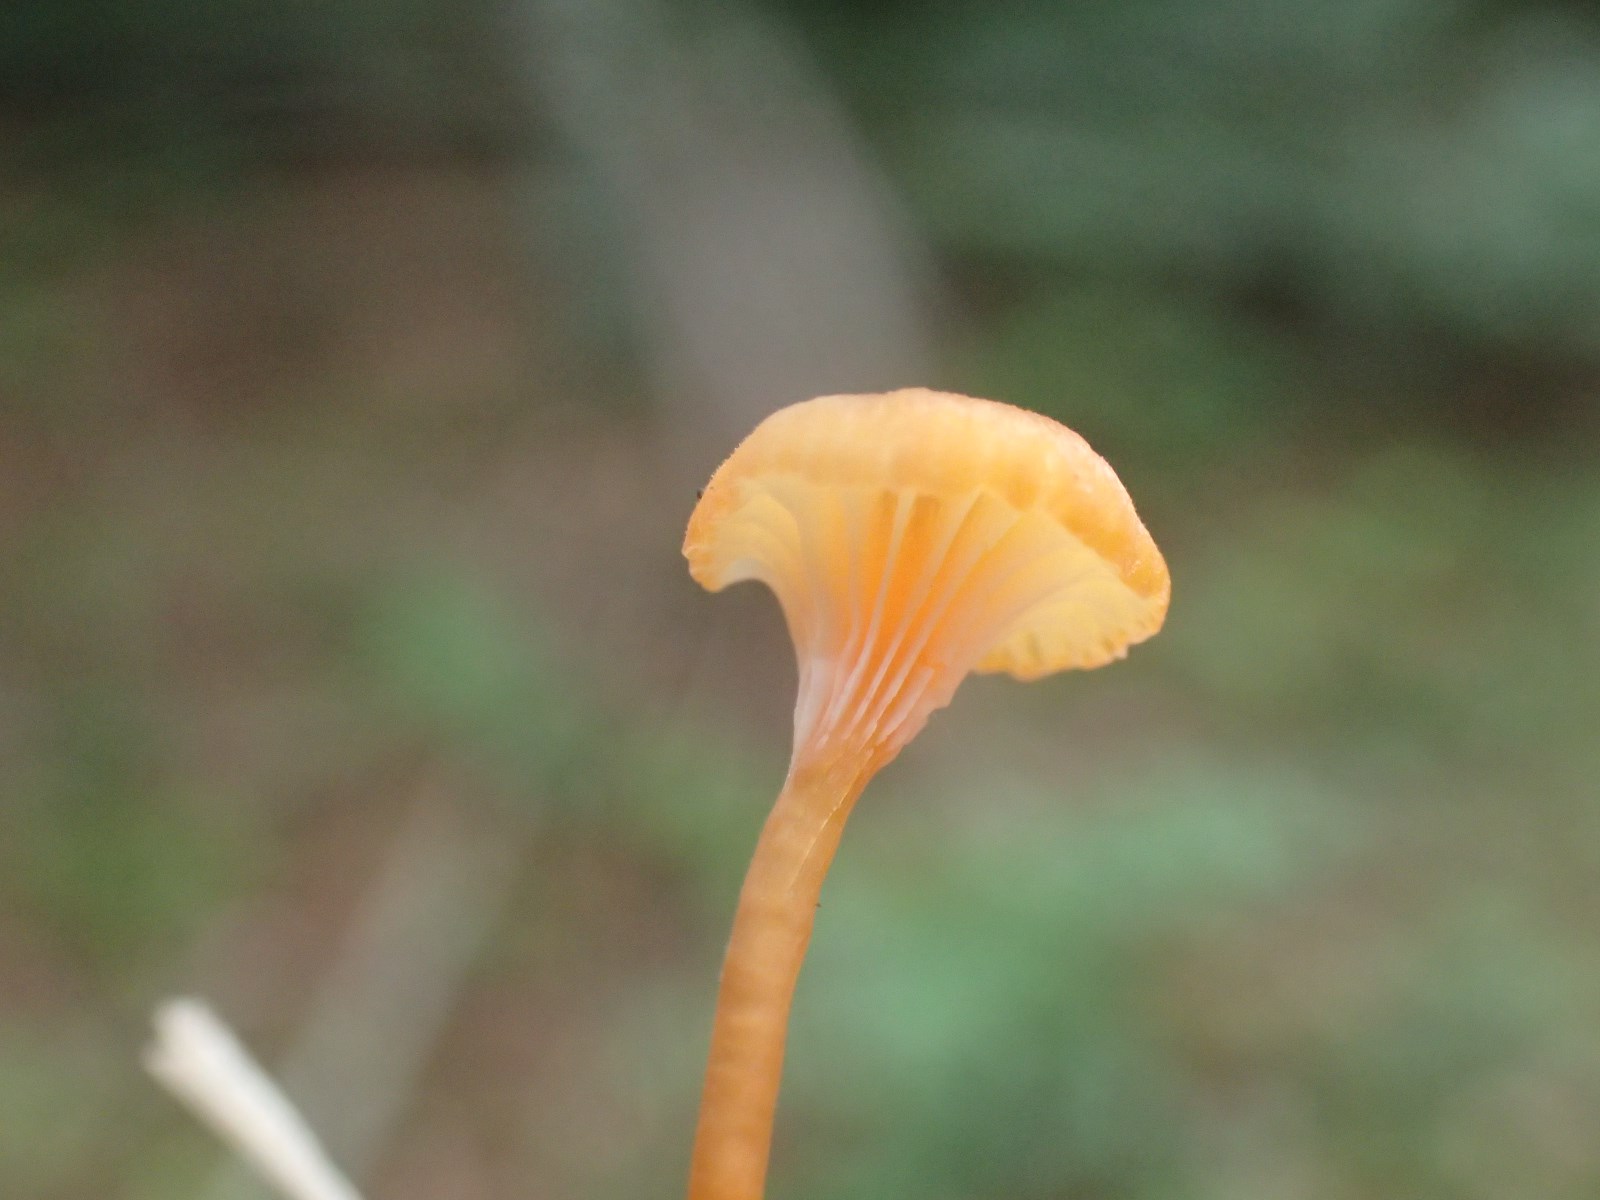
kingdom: Fungi
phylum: Basidiomycota
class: Agaricomycetes
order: Hymenochaetales
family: Rickenellaceae
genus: Rickenella
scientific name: Rickenella fibula
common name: orange mosnavlehat
